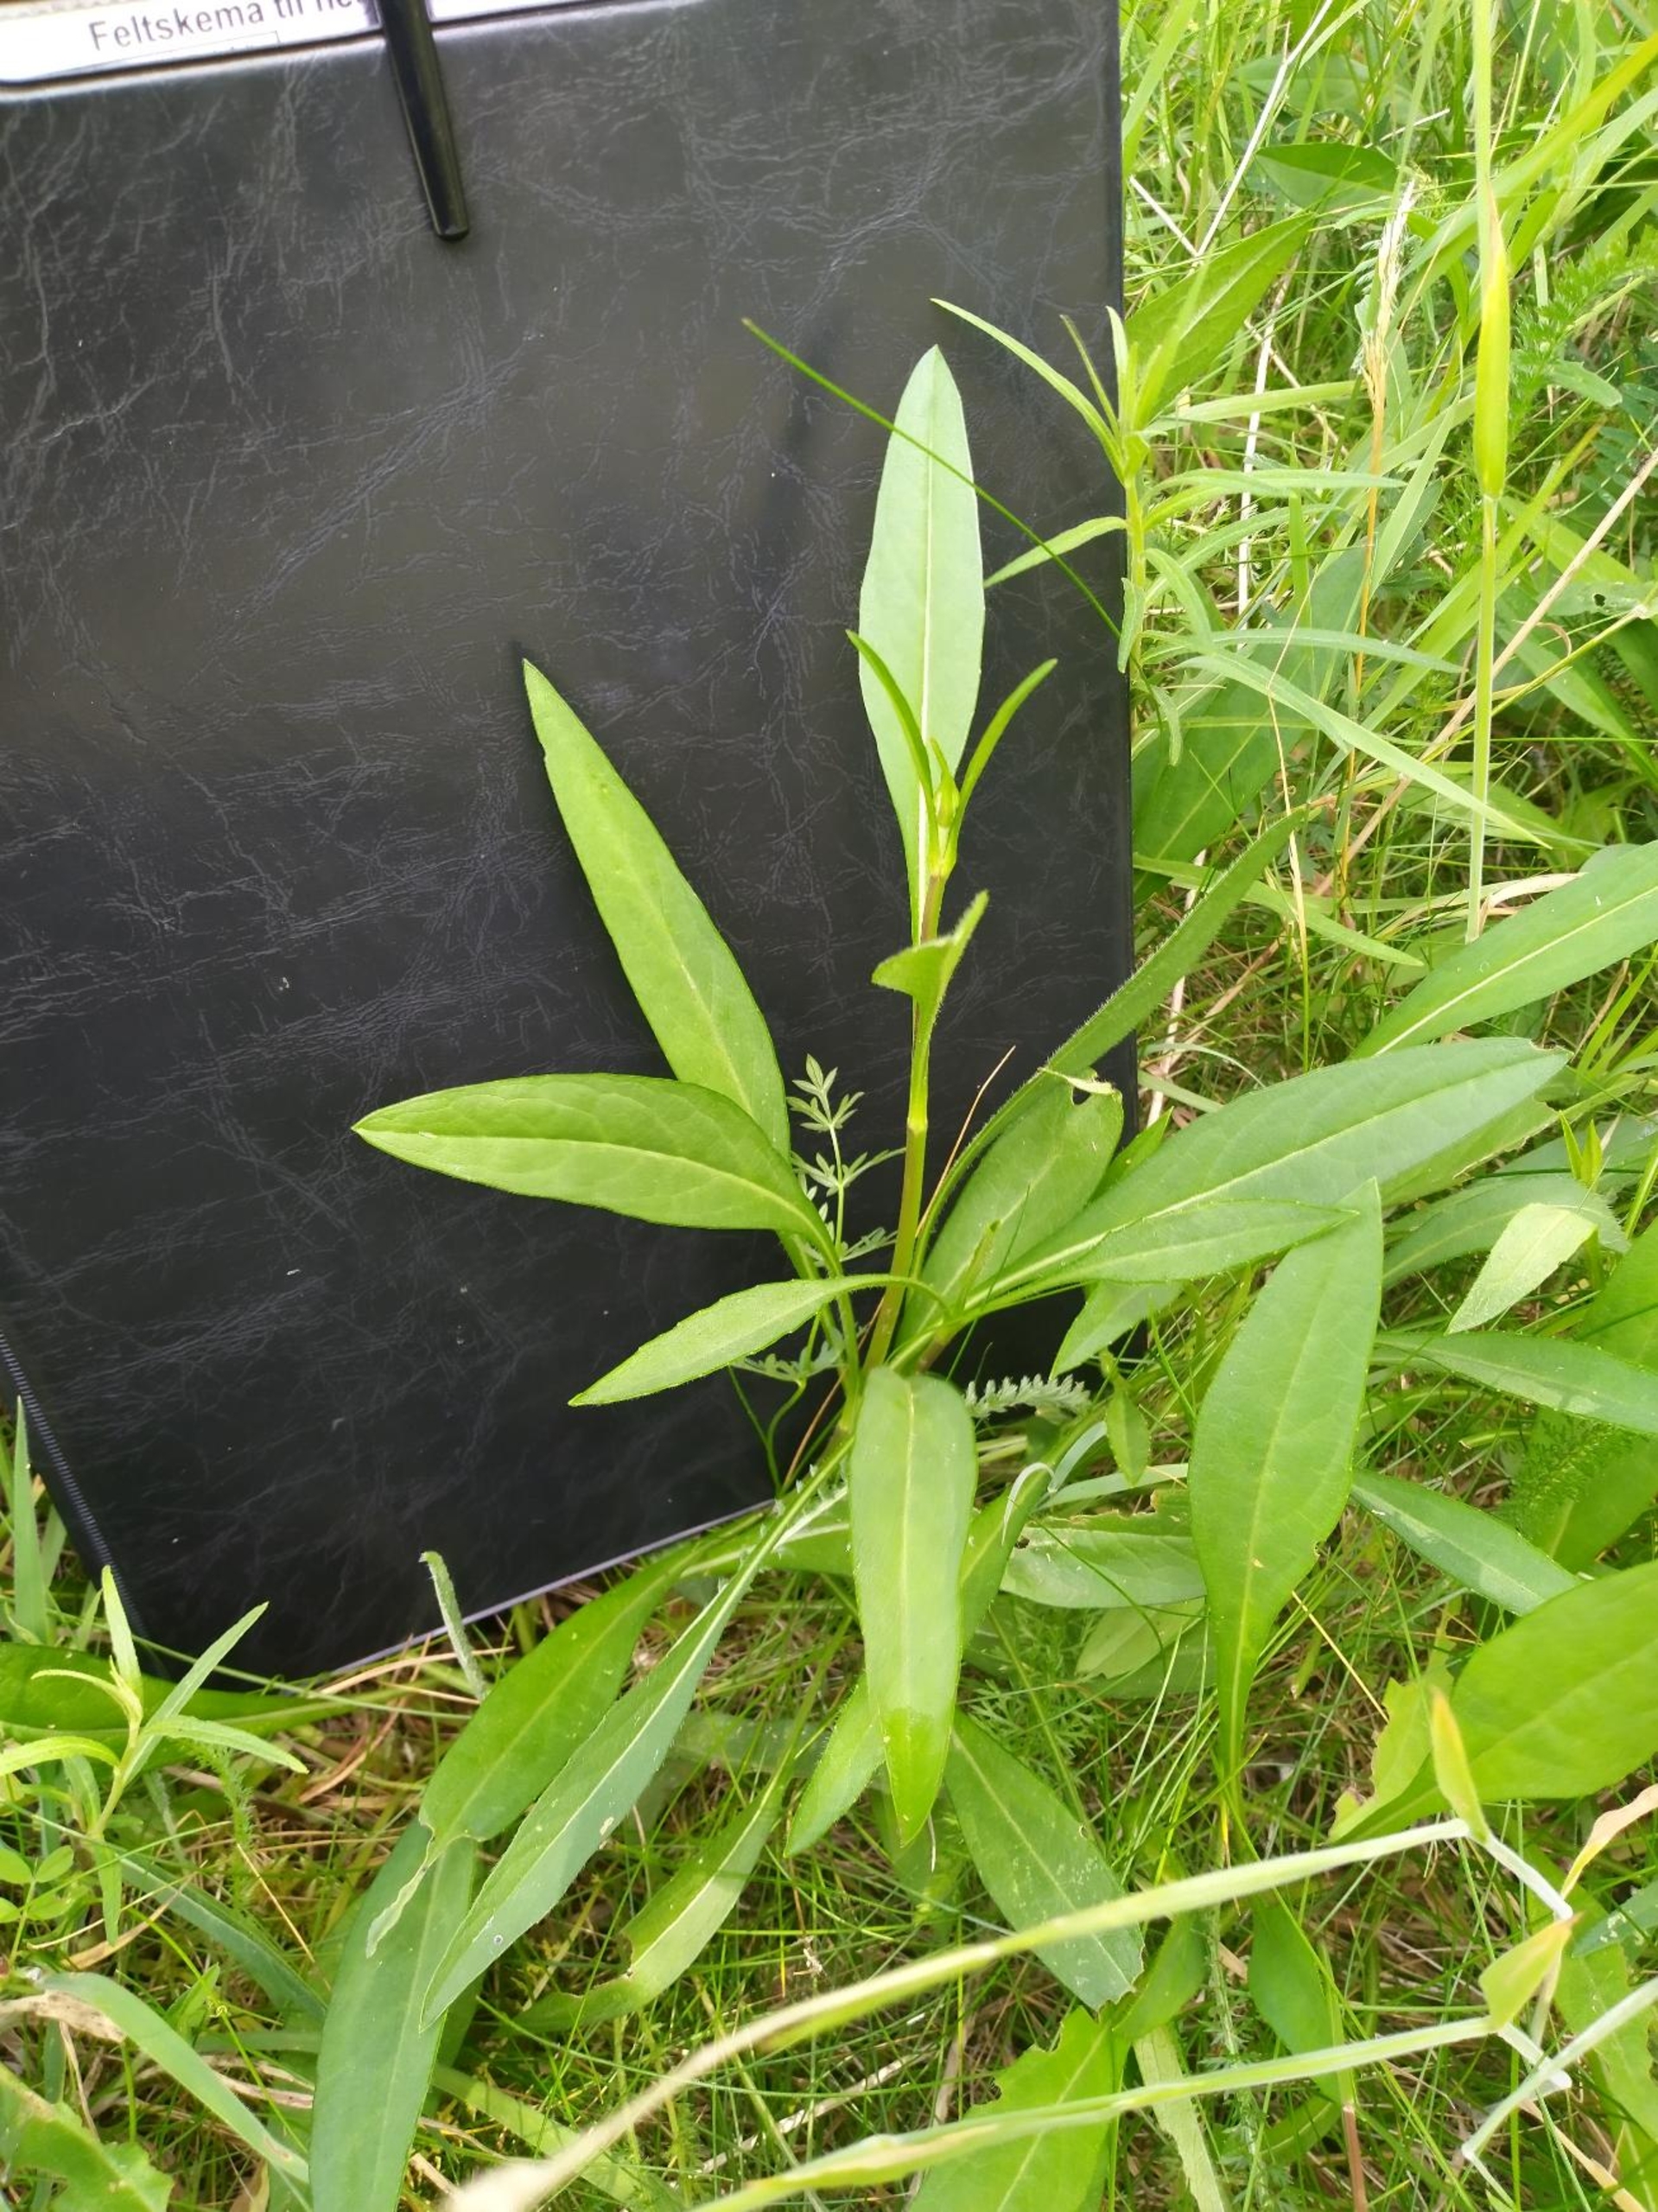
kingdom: Plantae
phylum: Tracheophyta
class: Magnoliopsida
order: Dipsacales
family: Caprifoliaceae
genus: Succisa
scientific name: Succisa pratensis
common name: Djævelsbid
